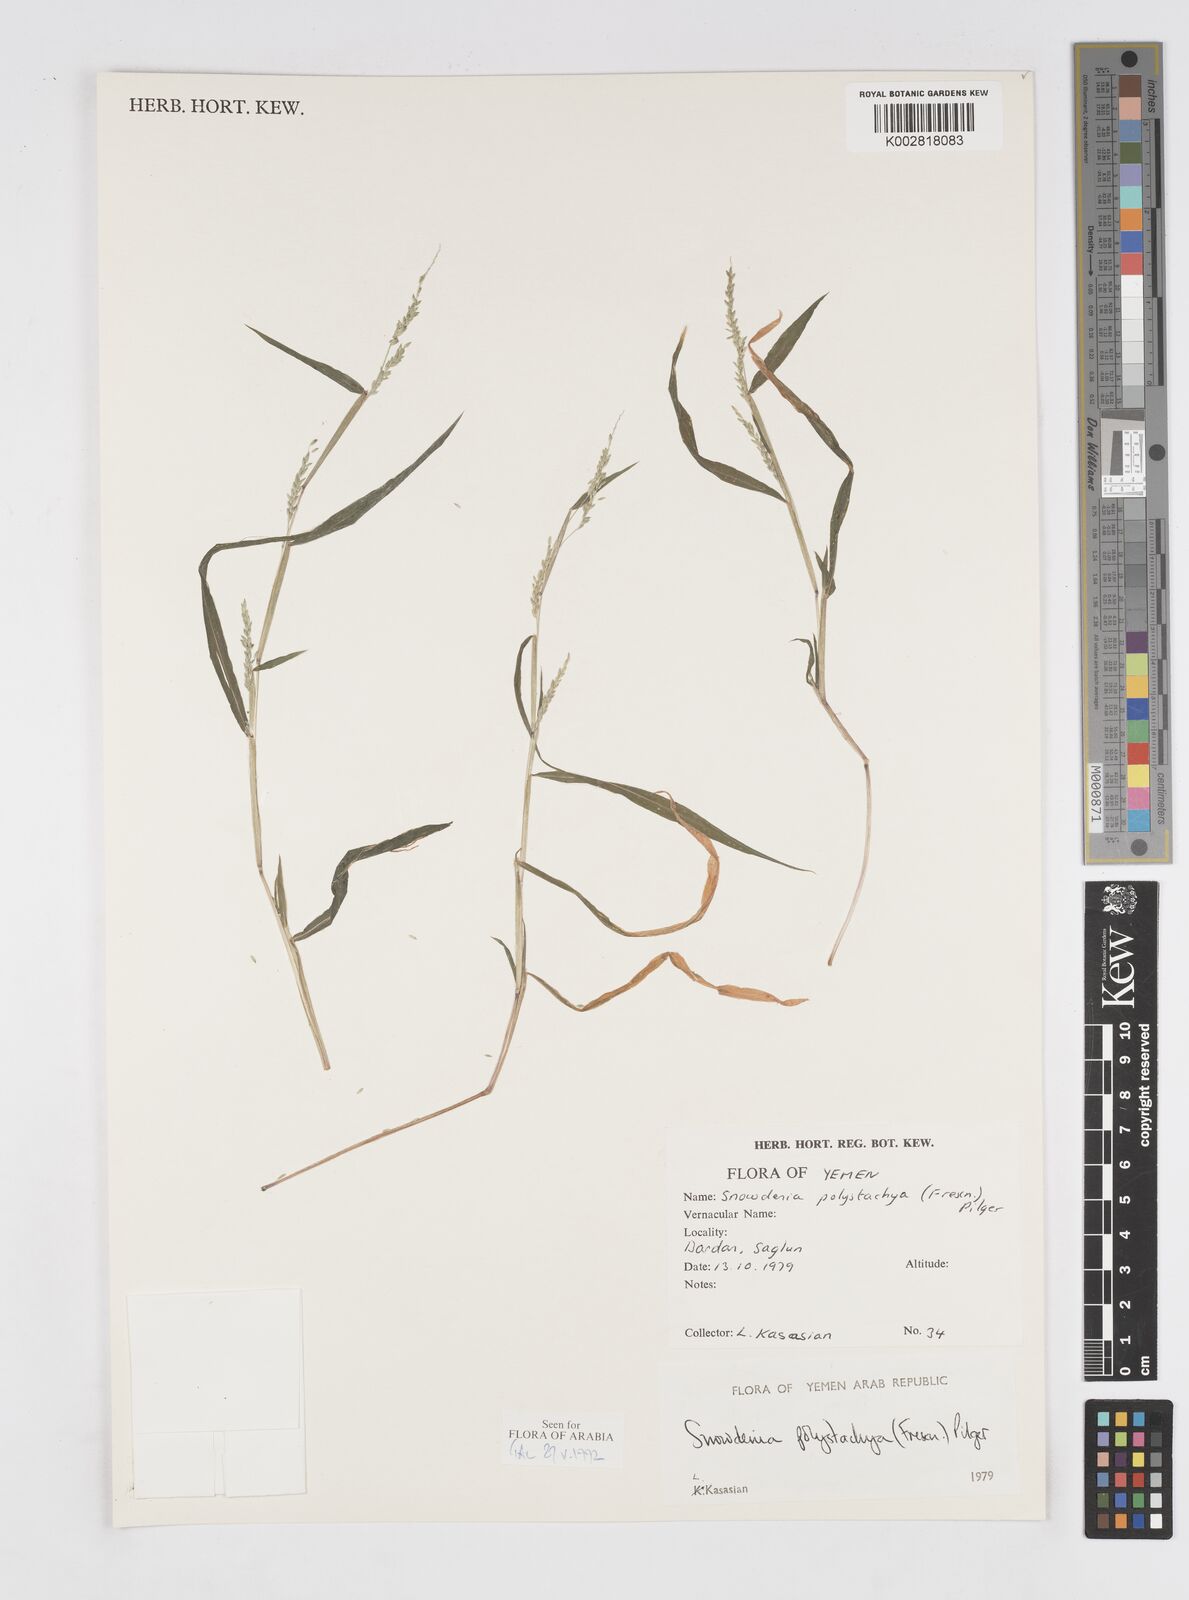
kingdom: Plantae
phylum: Tracheophyta
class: Liliopsida
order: Poales
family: Poaceae
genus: Snowdenia
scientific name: Snowdenia polystachya
